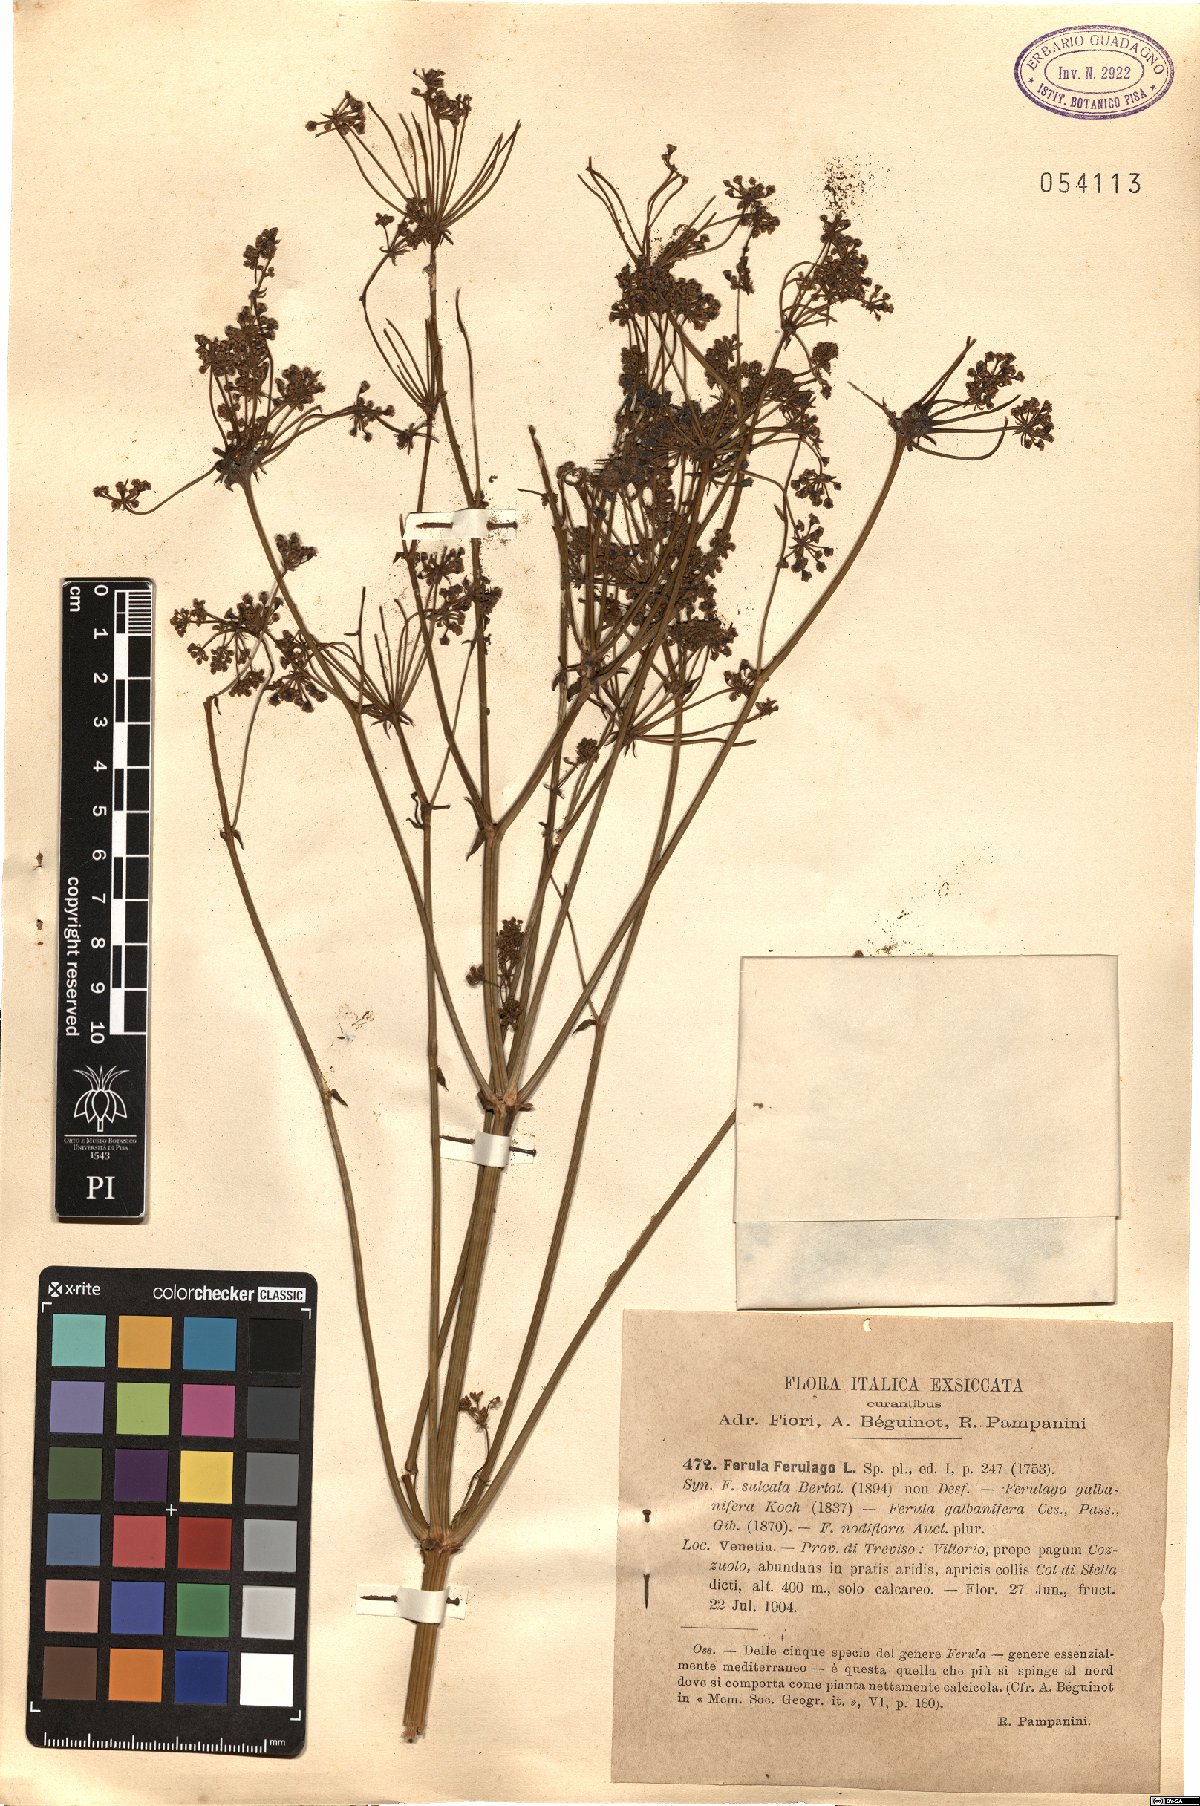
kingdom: Plantae
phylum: Tracheophyta
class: Magnoliopsida
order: Apiales
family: Apiaceae
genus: Ferula
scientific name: Ferula communis
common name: Giant fennel
